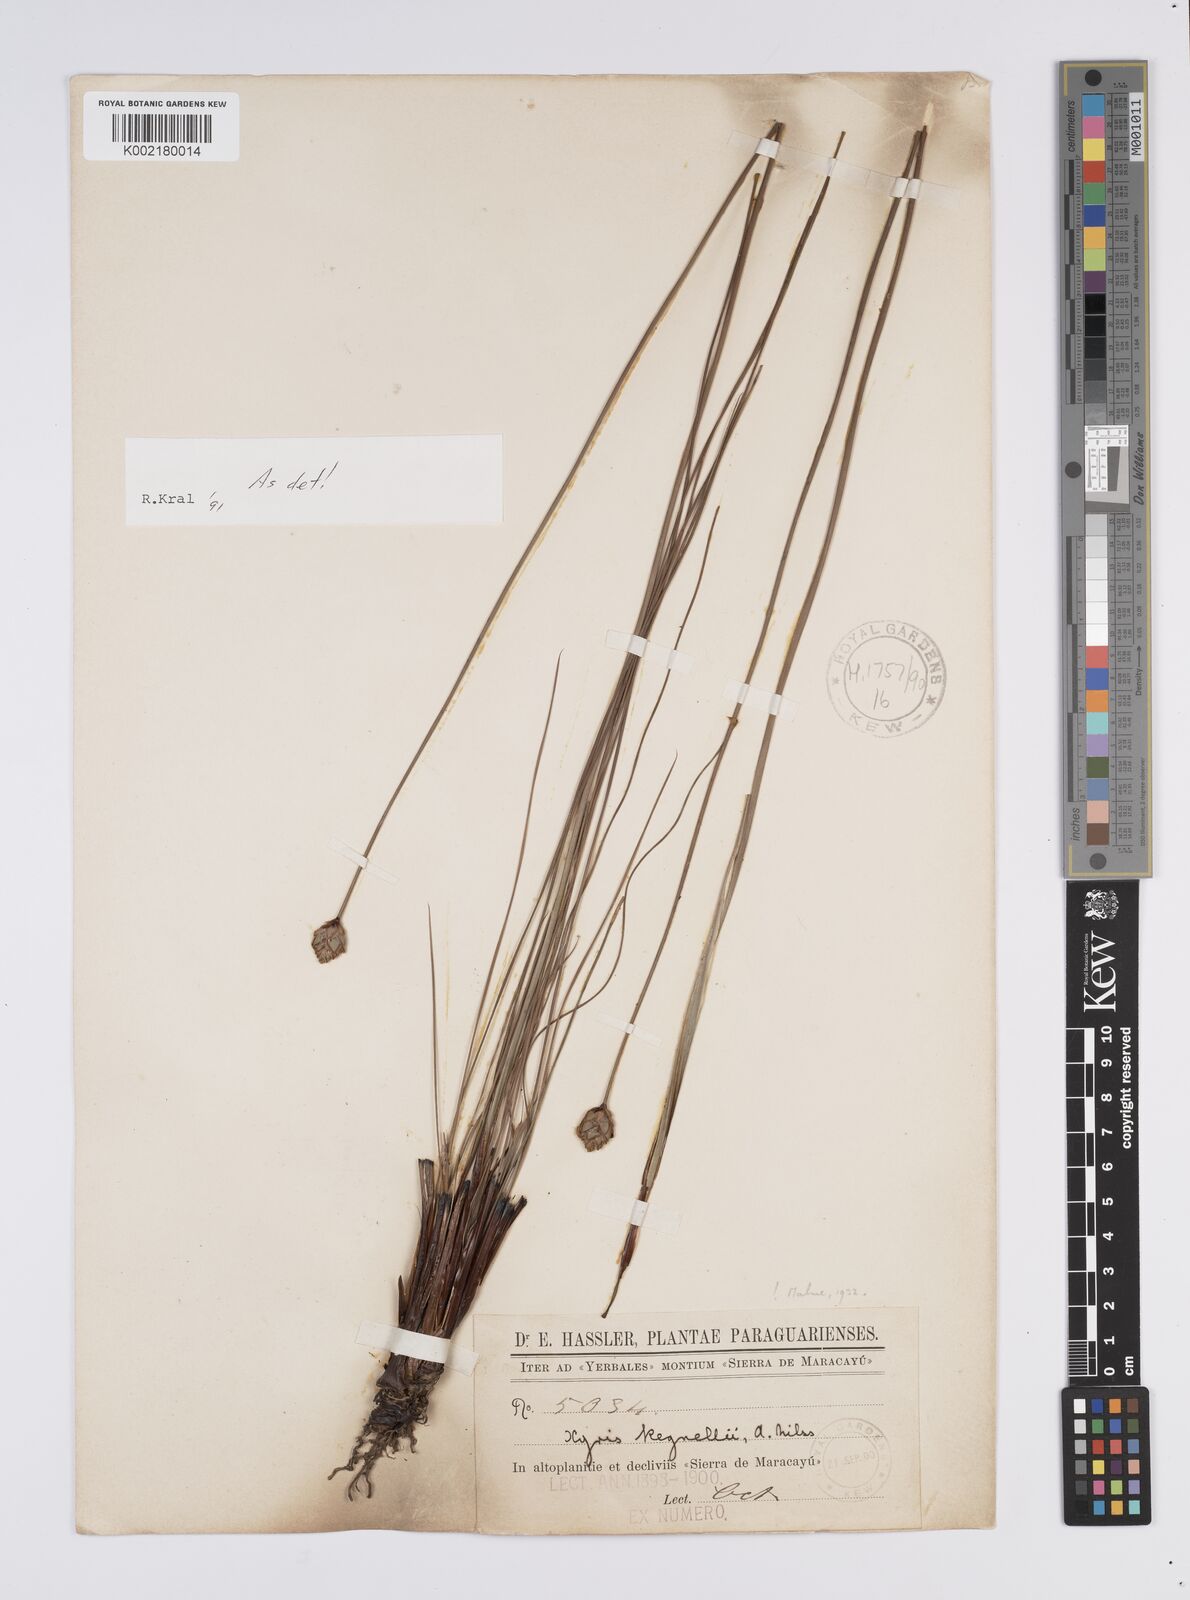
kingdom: Plantae
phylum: Tracheophyta
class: Liliopsida
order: Poales
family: Xyridaceae
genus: Xyris
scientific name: Xyris regnellii
